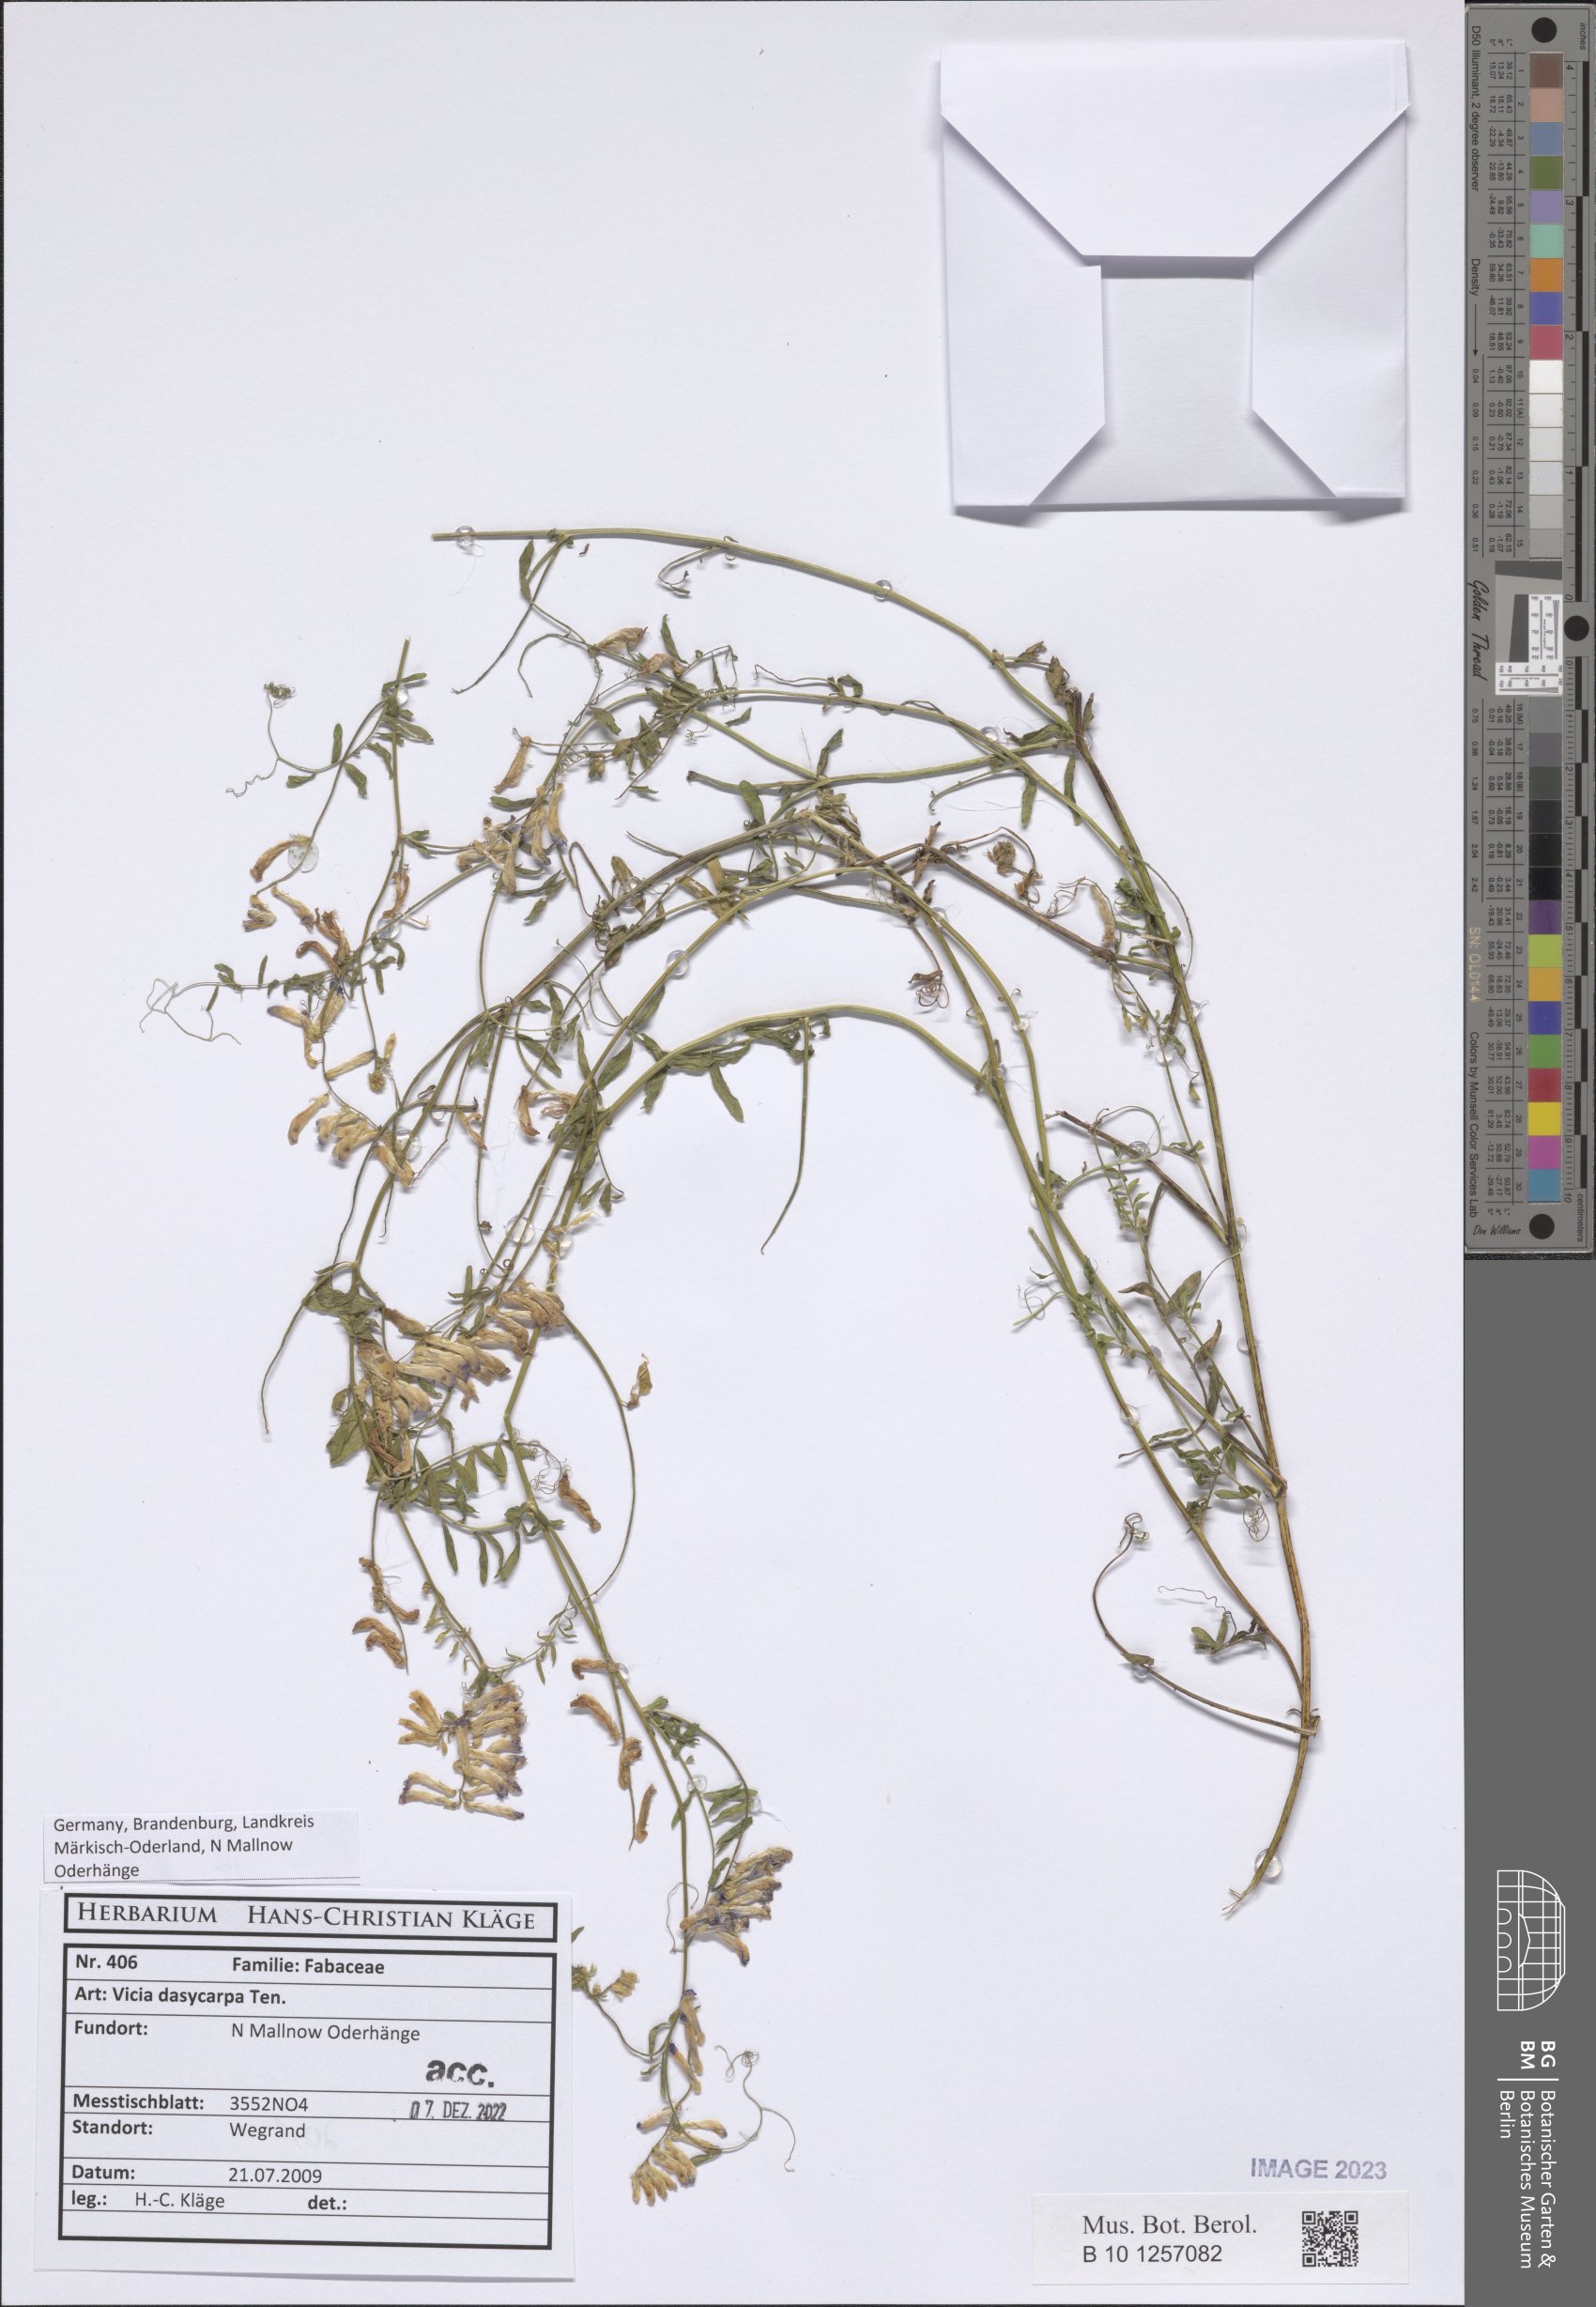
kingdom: Plantae
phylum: Tracheophyta
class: Magnoliopsida
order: Fabales
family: Fabaceae
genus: Vicia
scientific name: Vicia villosa
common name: Fodder vetch
